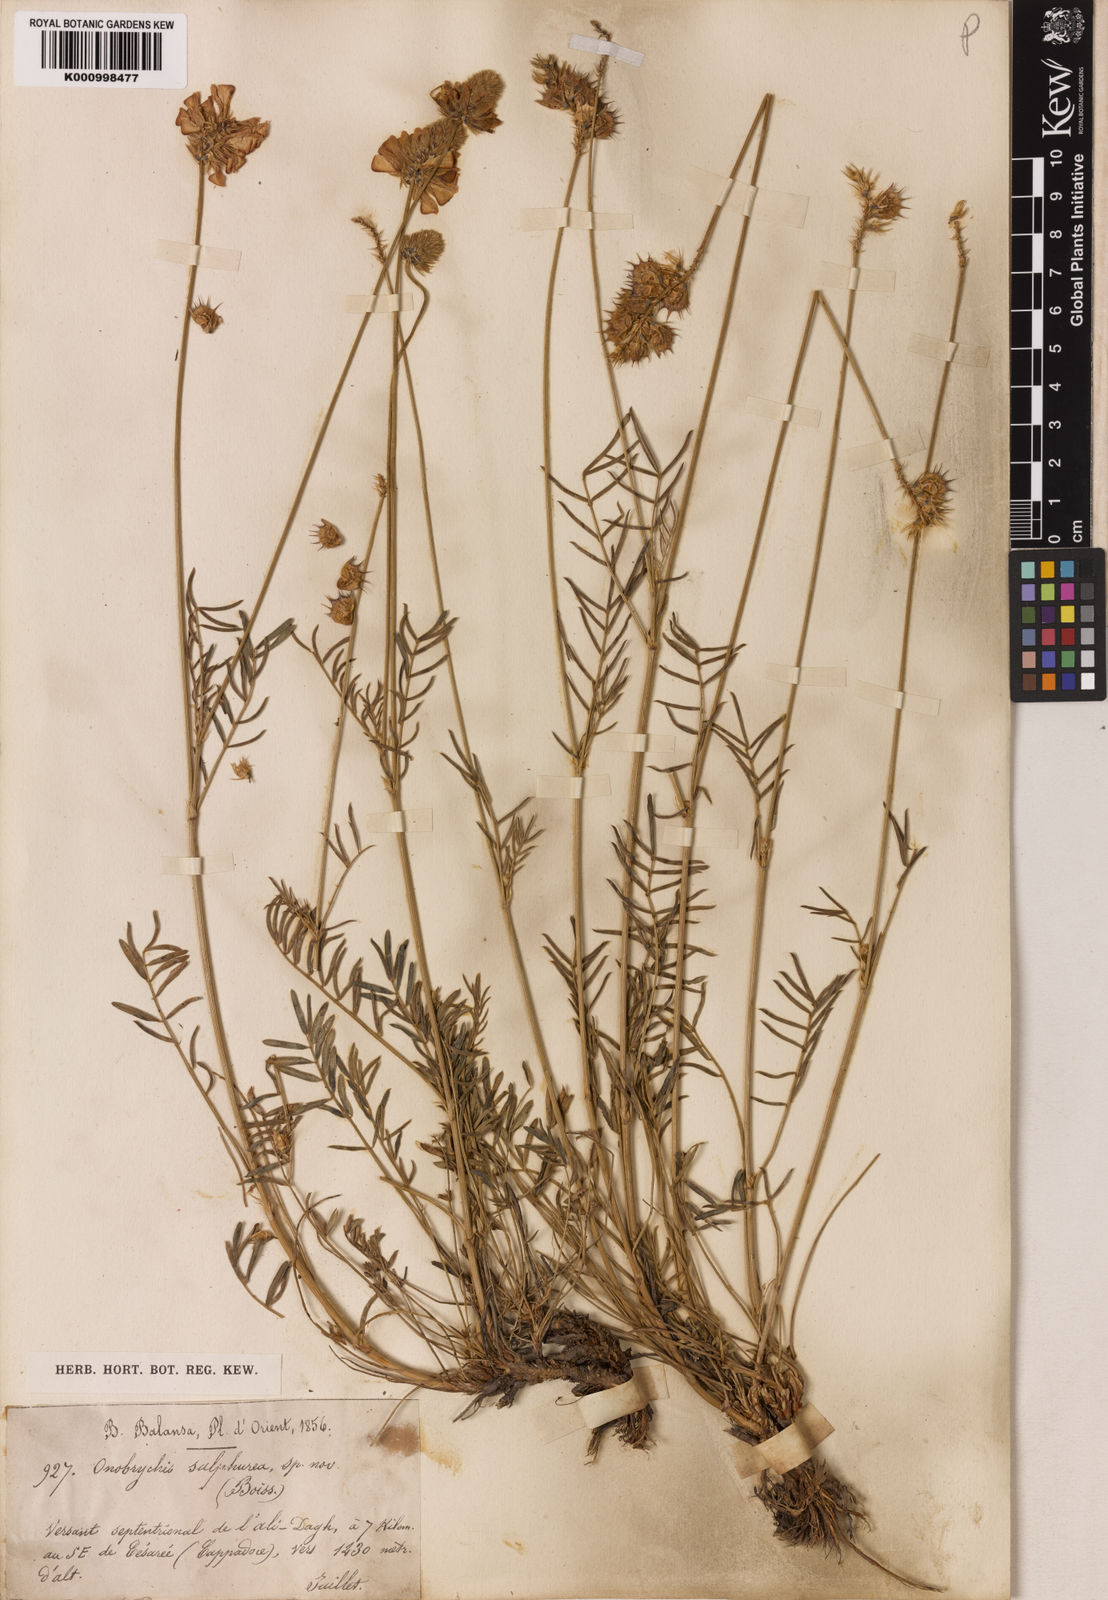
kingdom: Plantae
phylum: Tracheophyta
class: Magnoliopsida
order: Fabales
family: Fabaceae
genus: Onobrychis
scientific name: Onobrychis sulphurea
